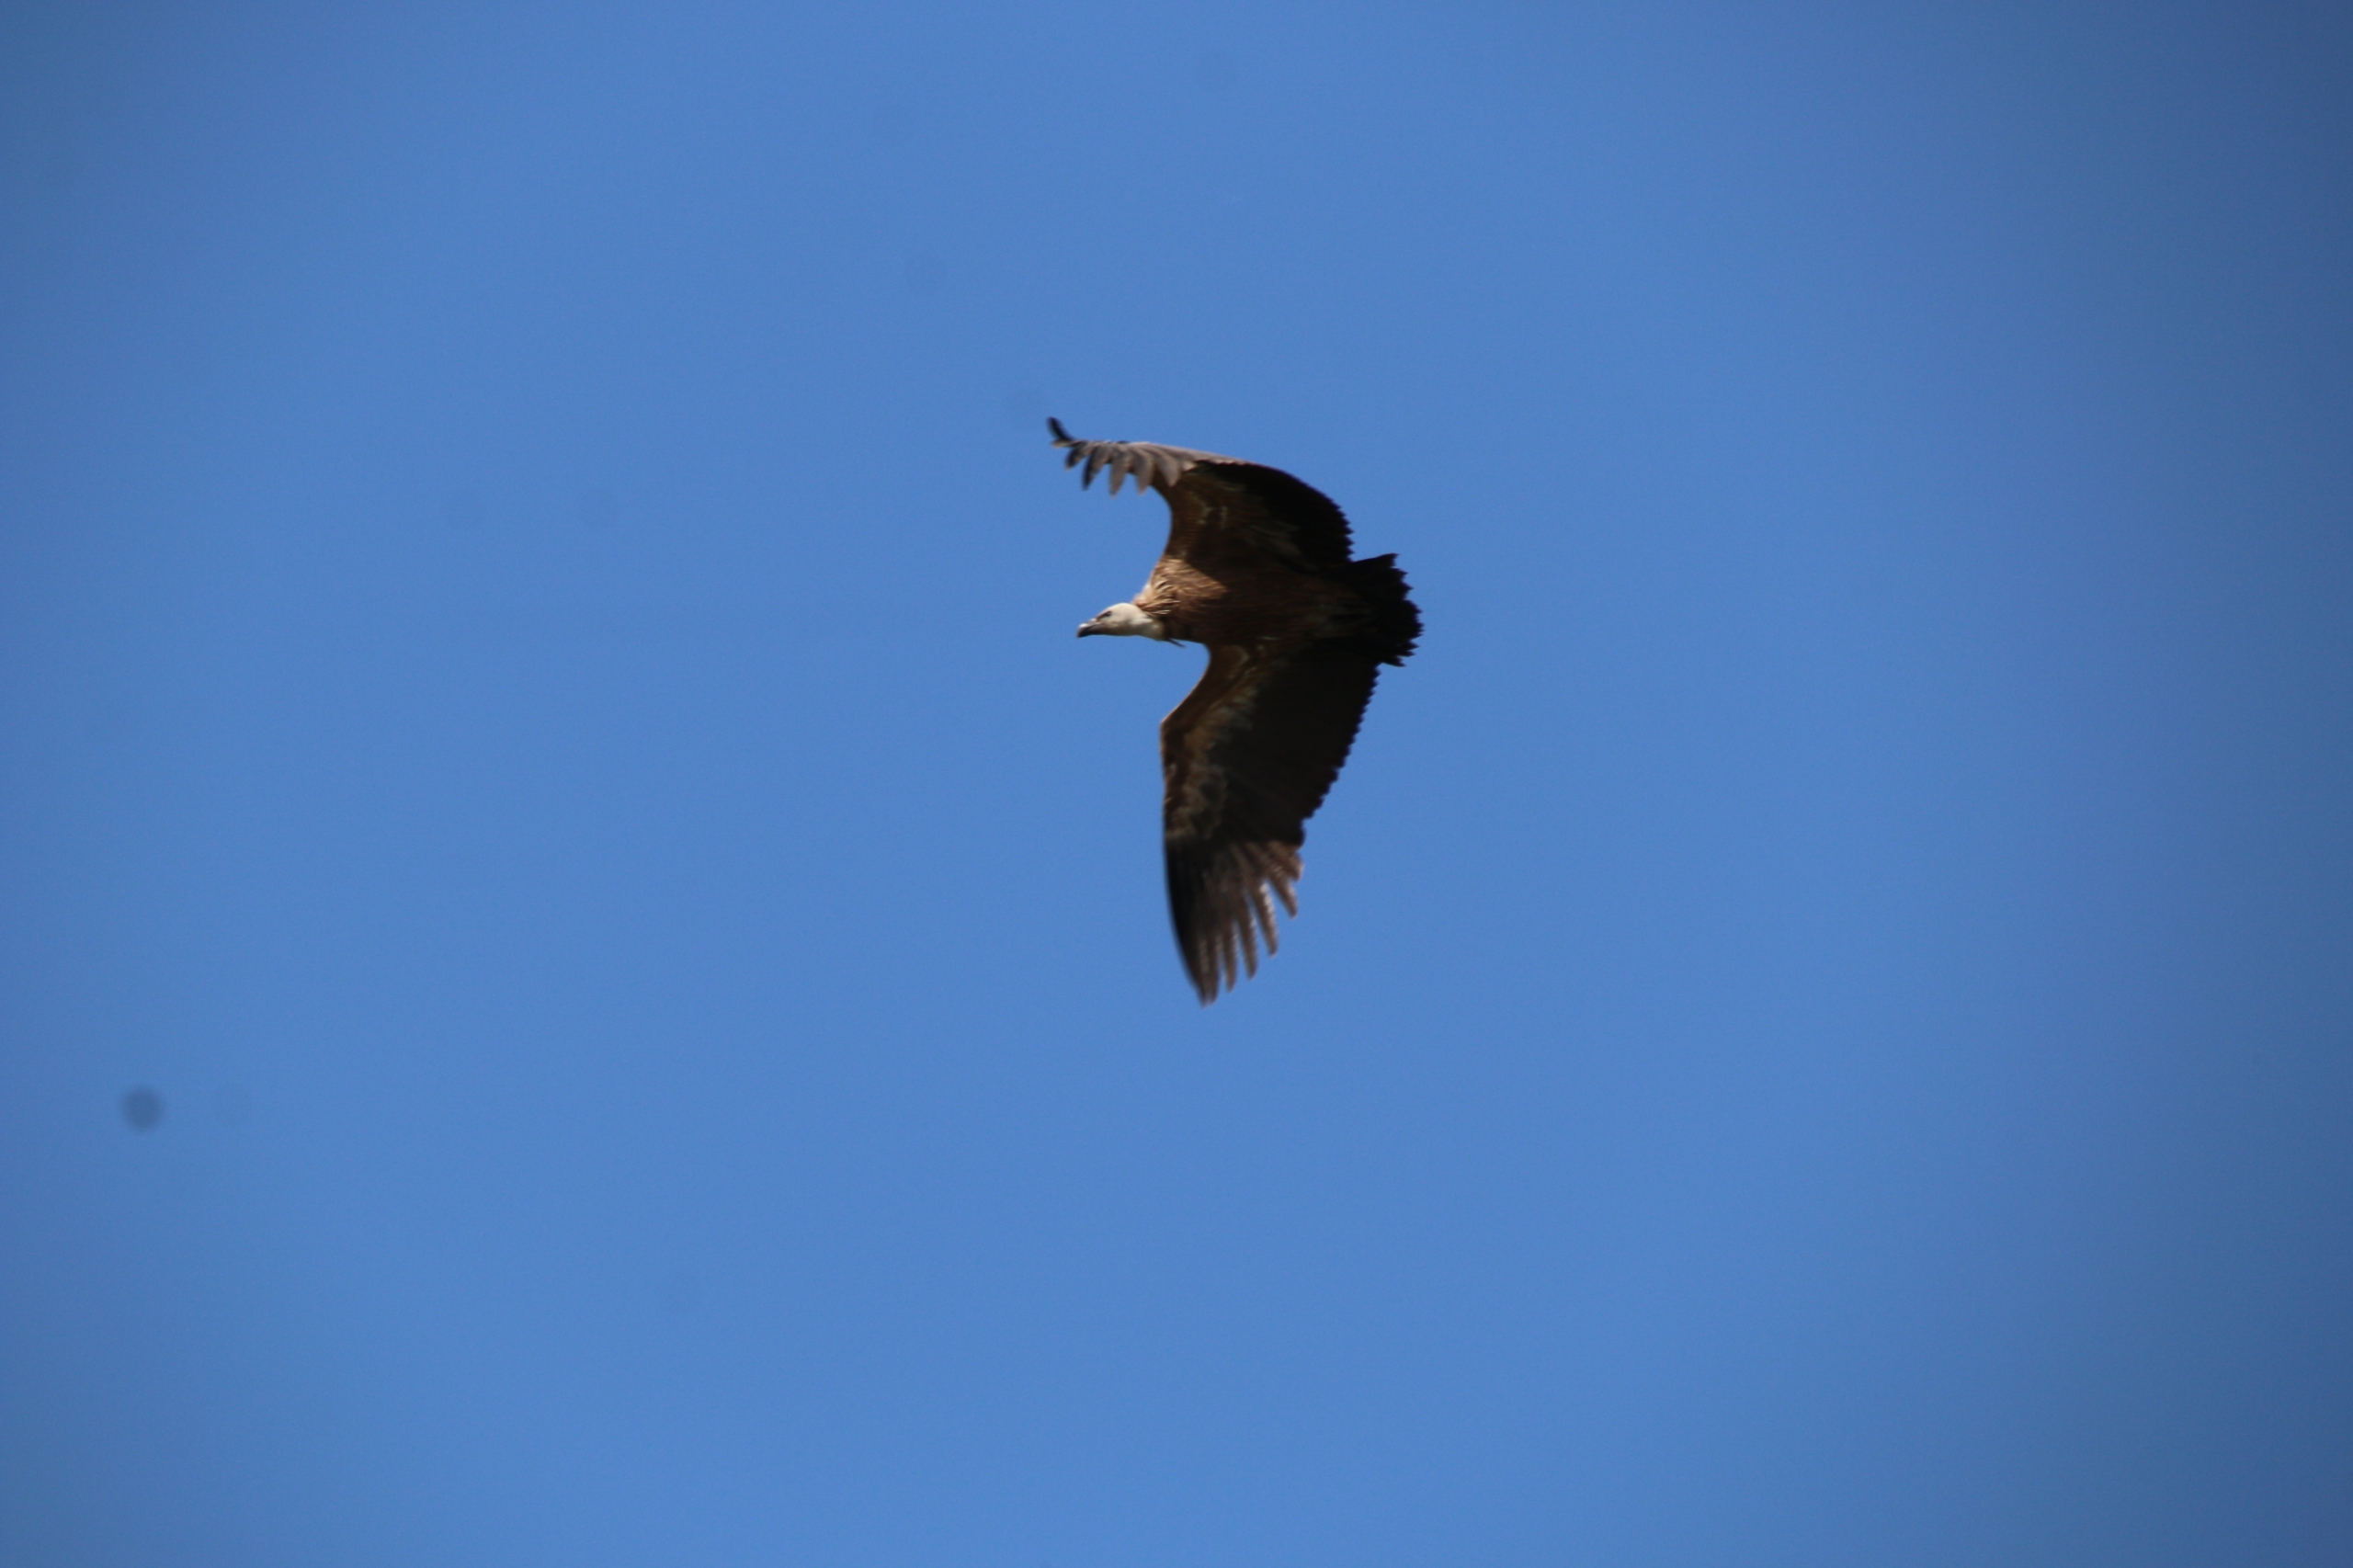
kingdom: Animalia
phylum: Chordata
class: Aves
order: Accipitriformes
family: Accipitridae
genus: Gyps
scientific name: Gyps fulvus
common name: Gåsegrib
